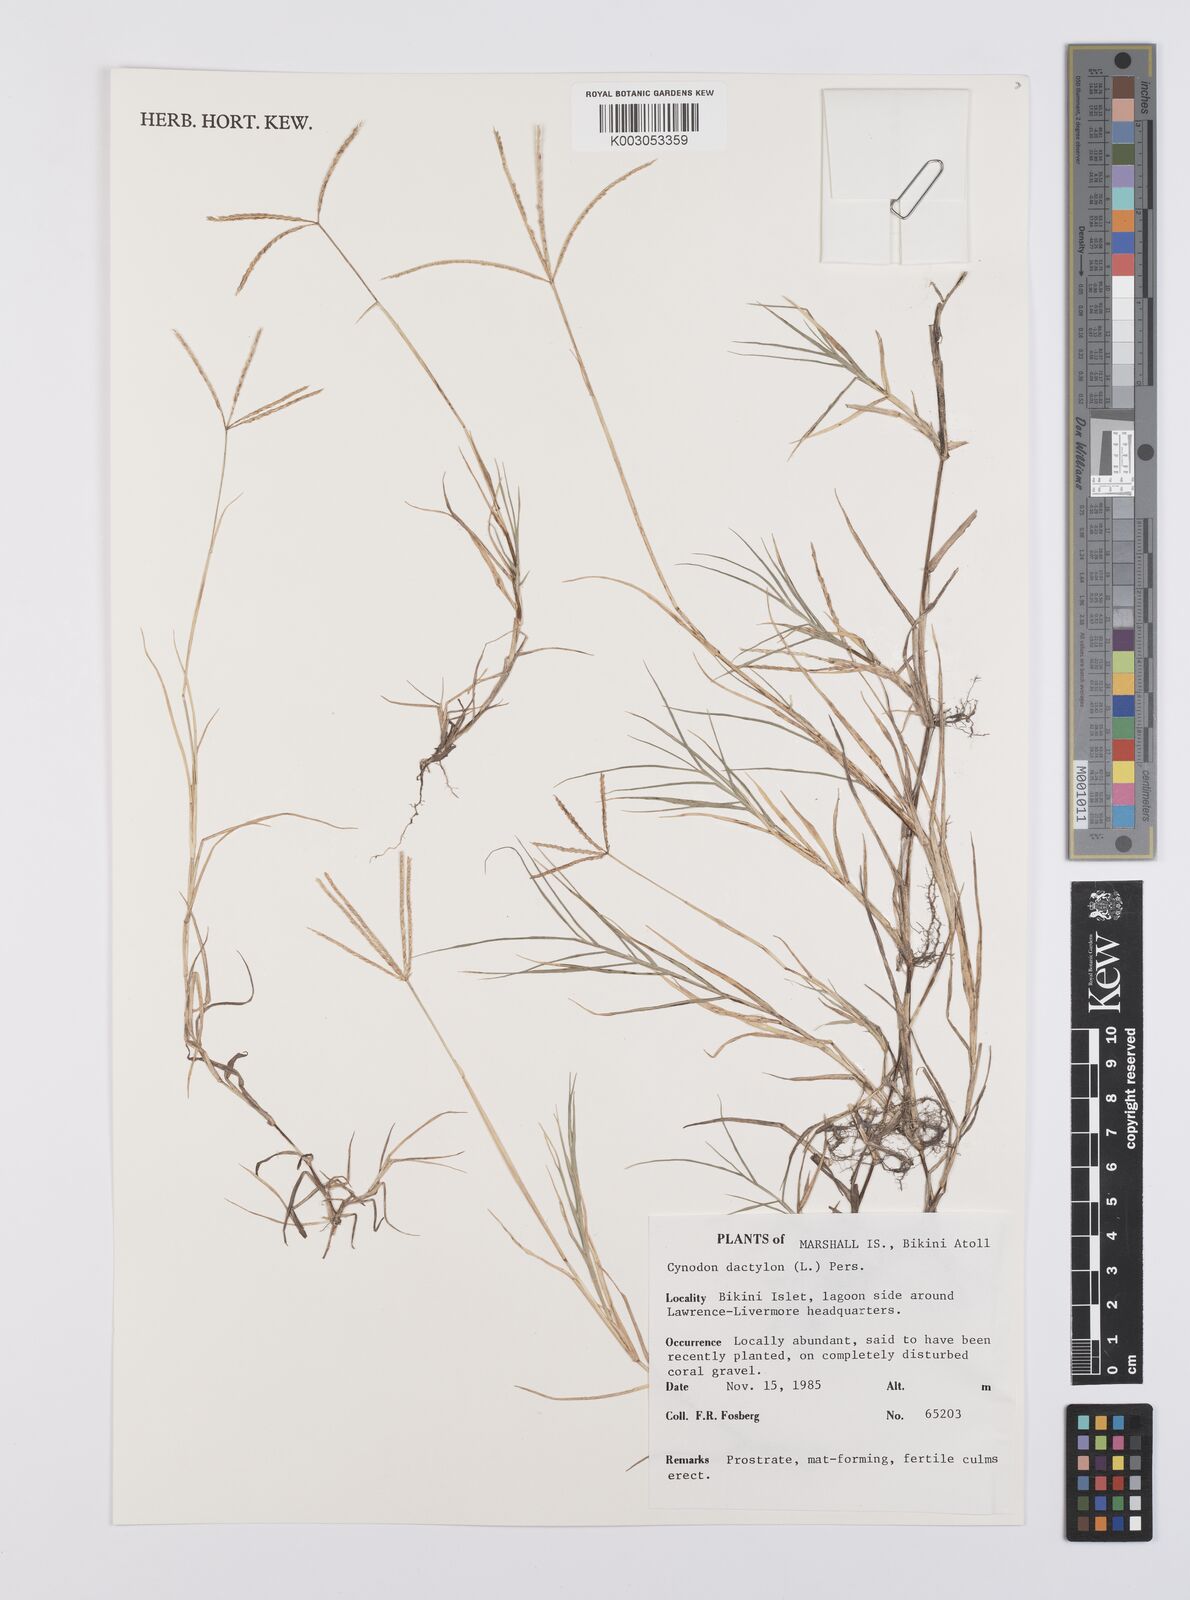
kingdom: Plantae
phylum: Tracheophyta
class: Liliopsida
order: Poales
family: Poaceae
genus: Cynodon
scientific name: Cynodon dactylon
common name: Bermuda grass
